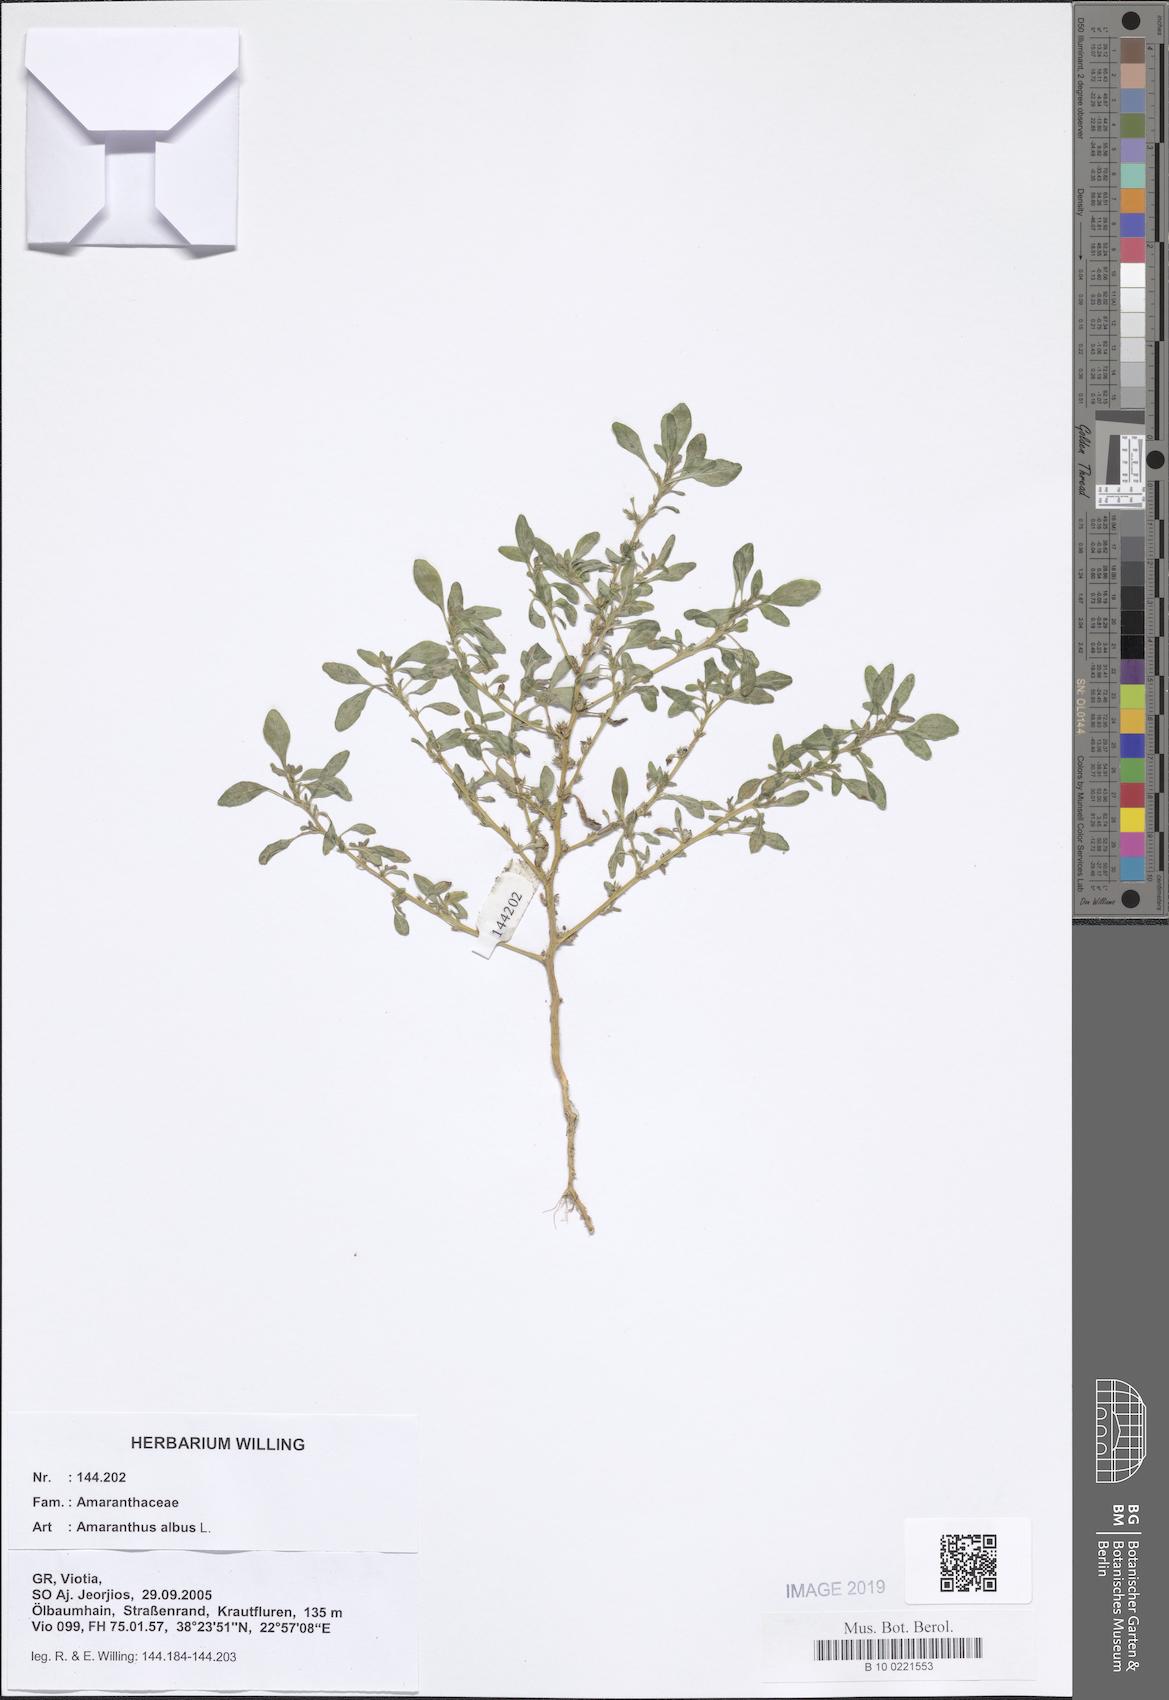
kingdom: Plantae
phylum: Tracheophyta
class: Magnoliopsida
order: Caryophyllales
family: Amaranthaceae
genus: Amaranthus
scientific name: Amaranthus albus
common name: White pigweed
